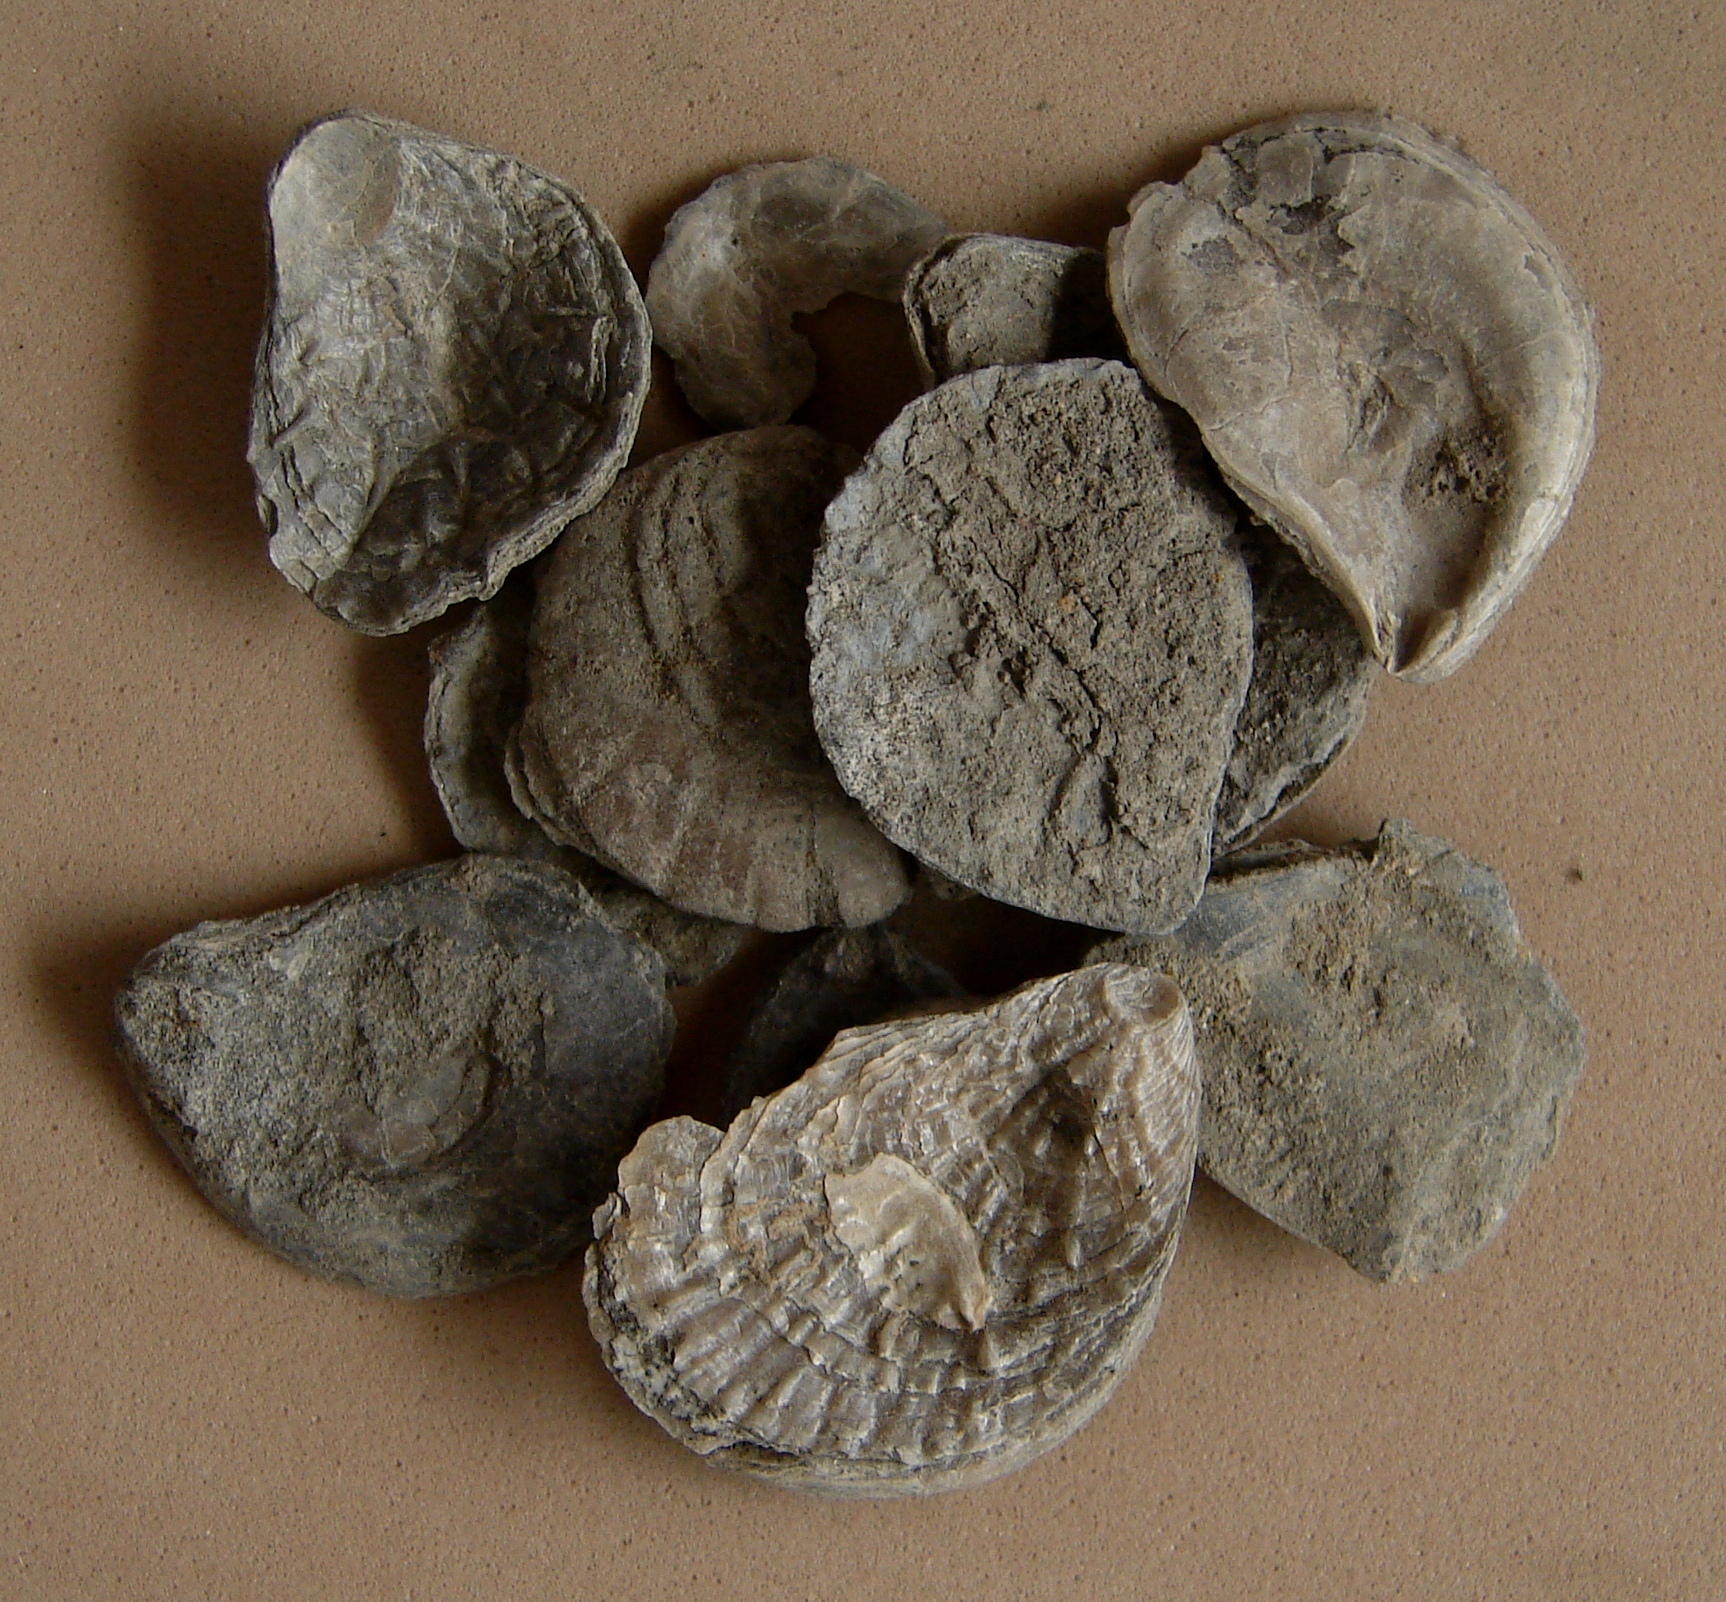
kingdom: Animalia
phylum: Mollusca
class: Bivalvia
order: Pectinida
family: Plicatulidae
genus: Plicatula
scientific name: Plicatula
